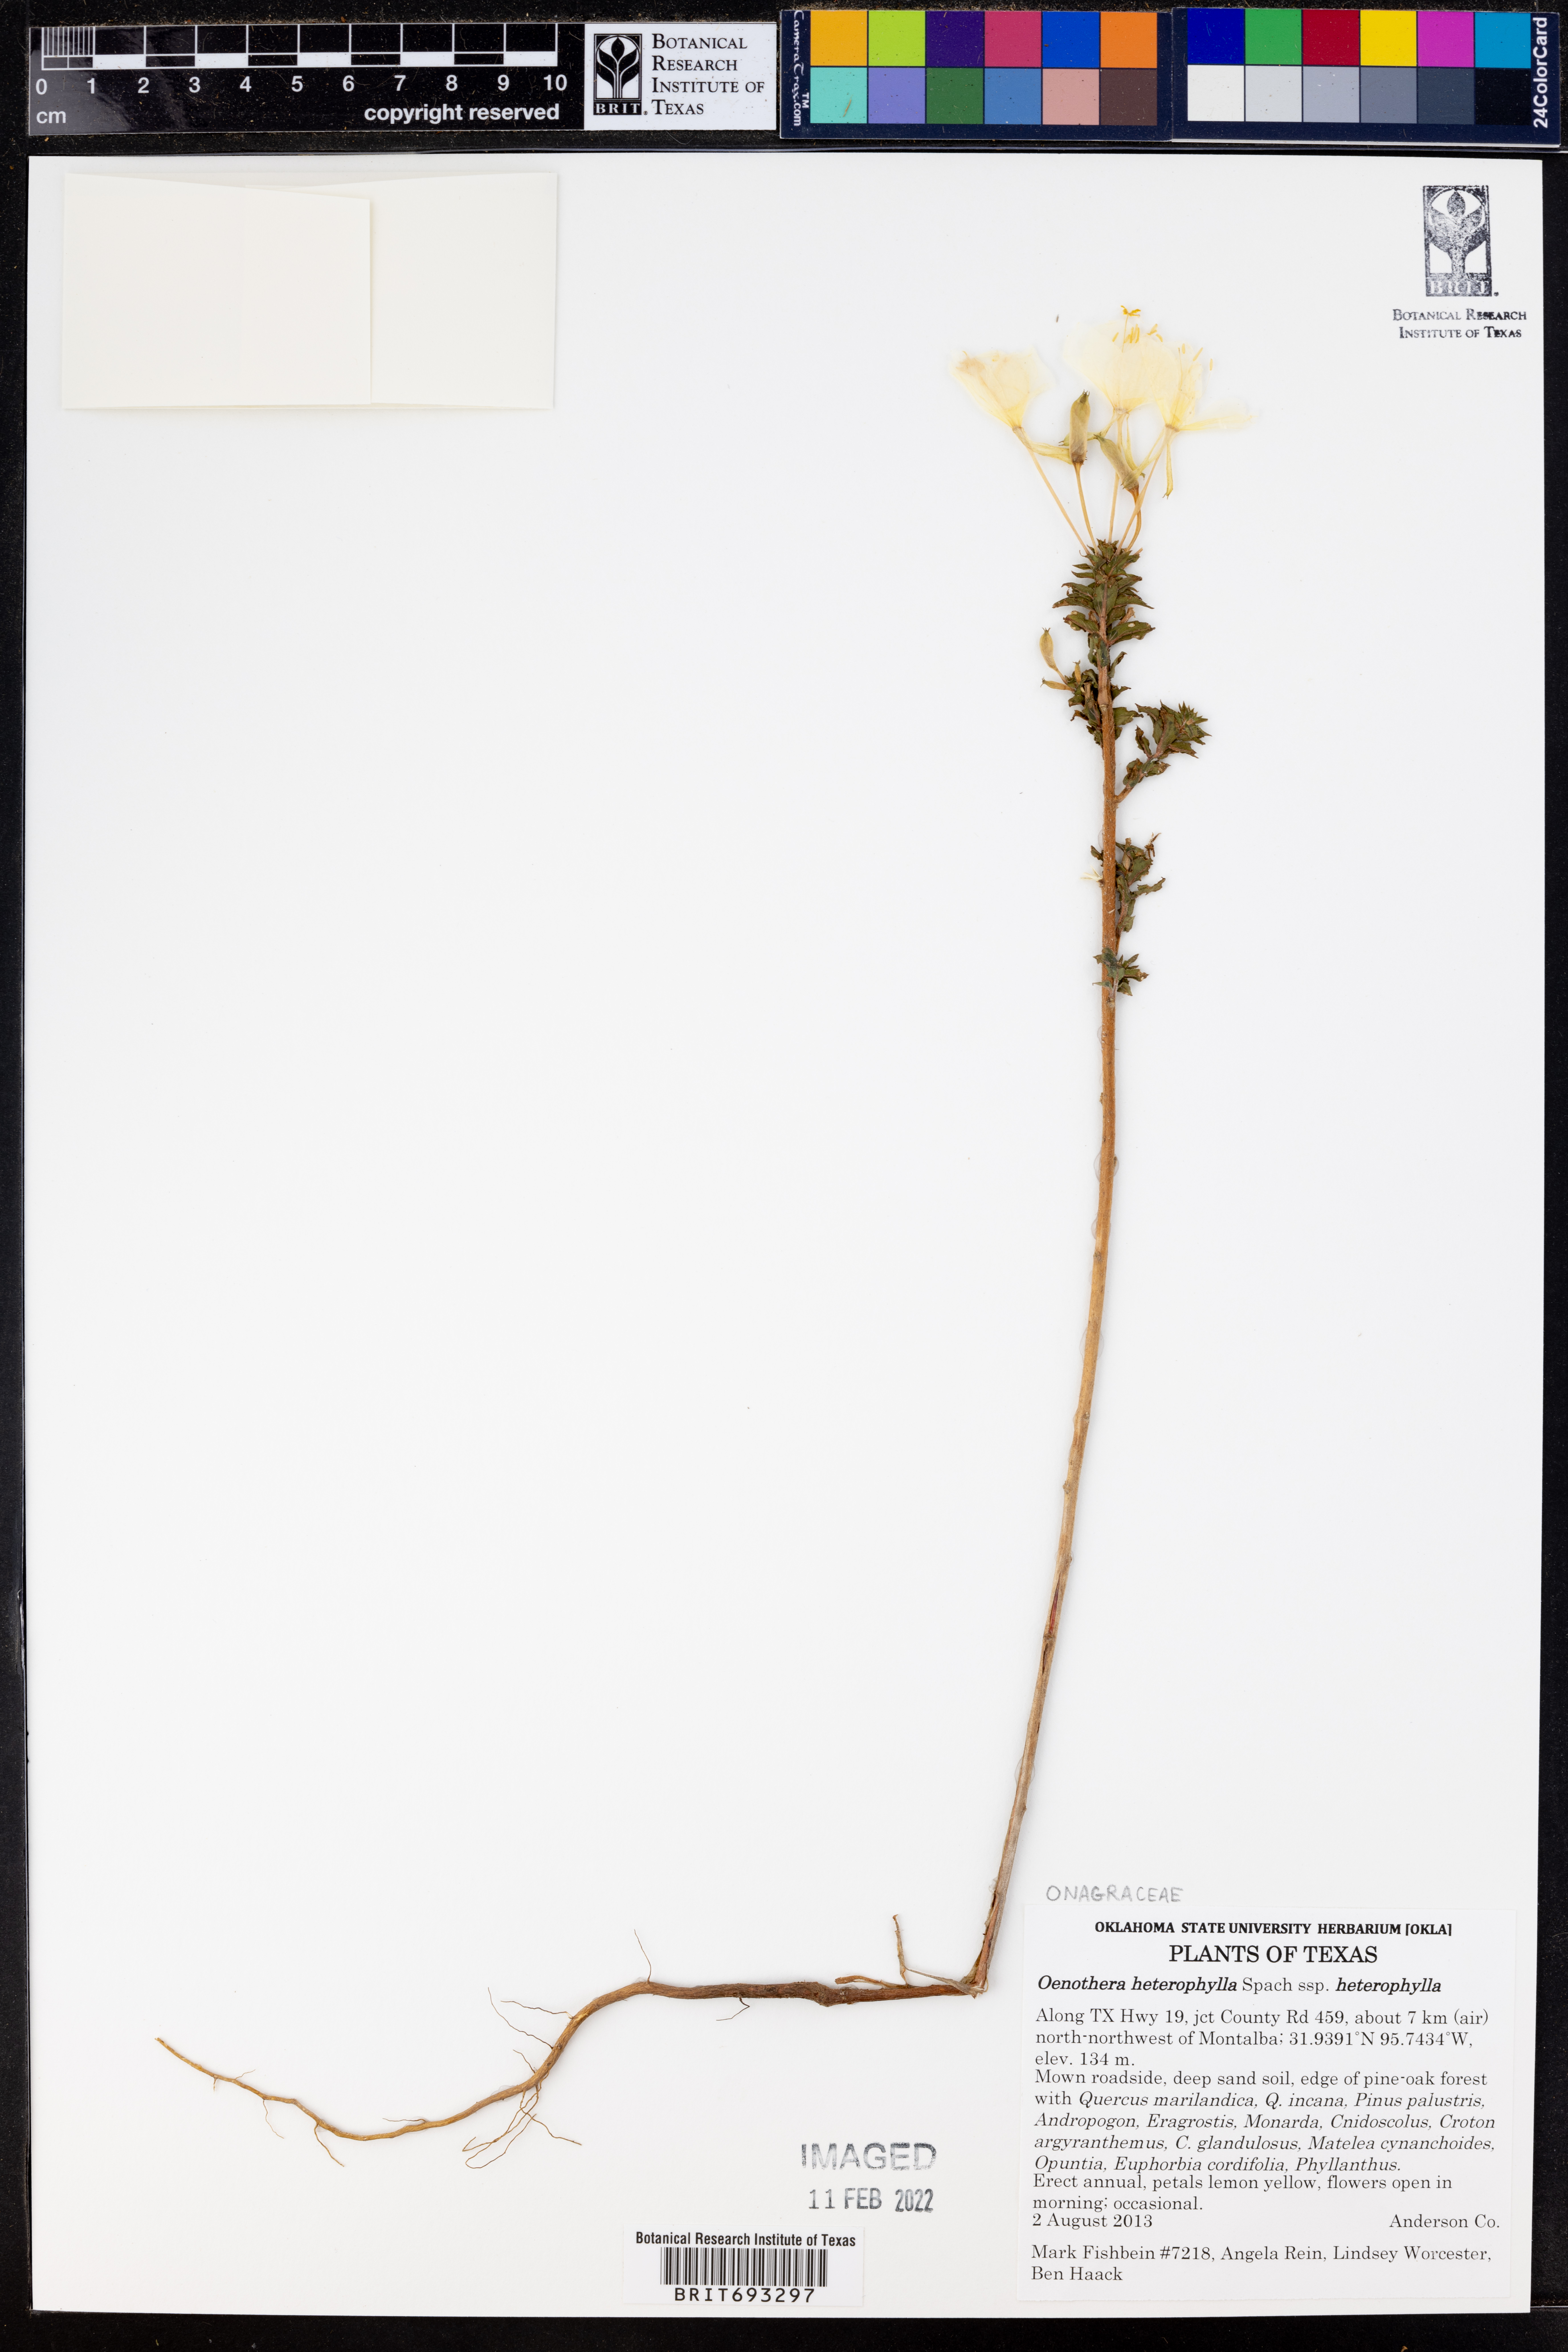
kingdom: Plantae
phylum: Tracheophyta
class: Magnoliopsida
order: Myrtales
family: Onagraceae
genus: Oenothera
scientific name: Oenothera heterophylla
